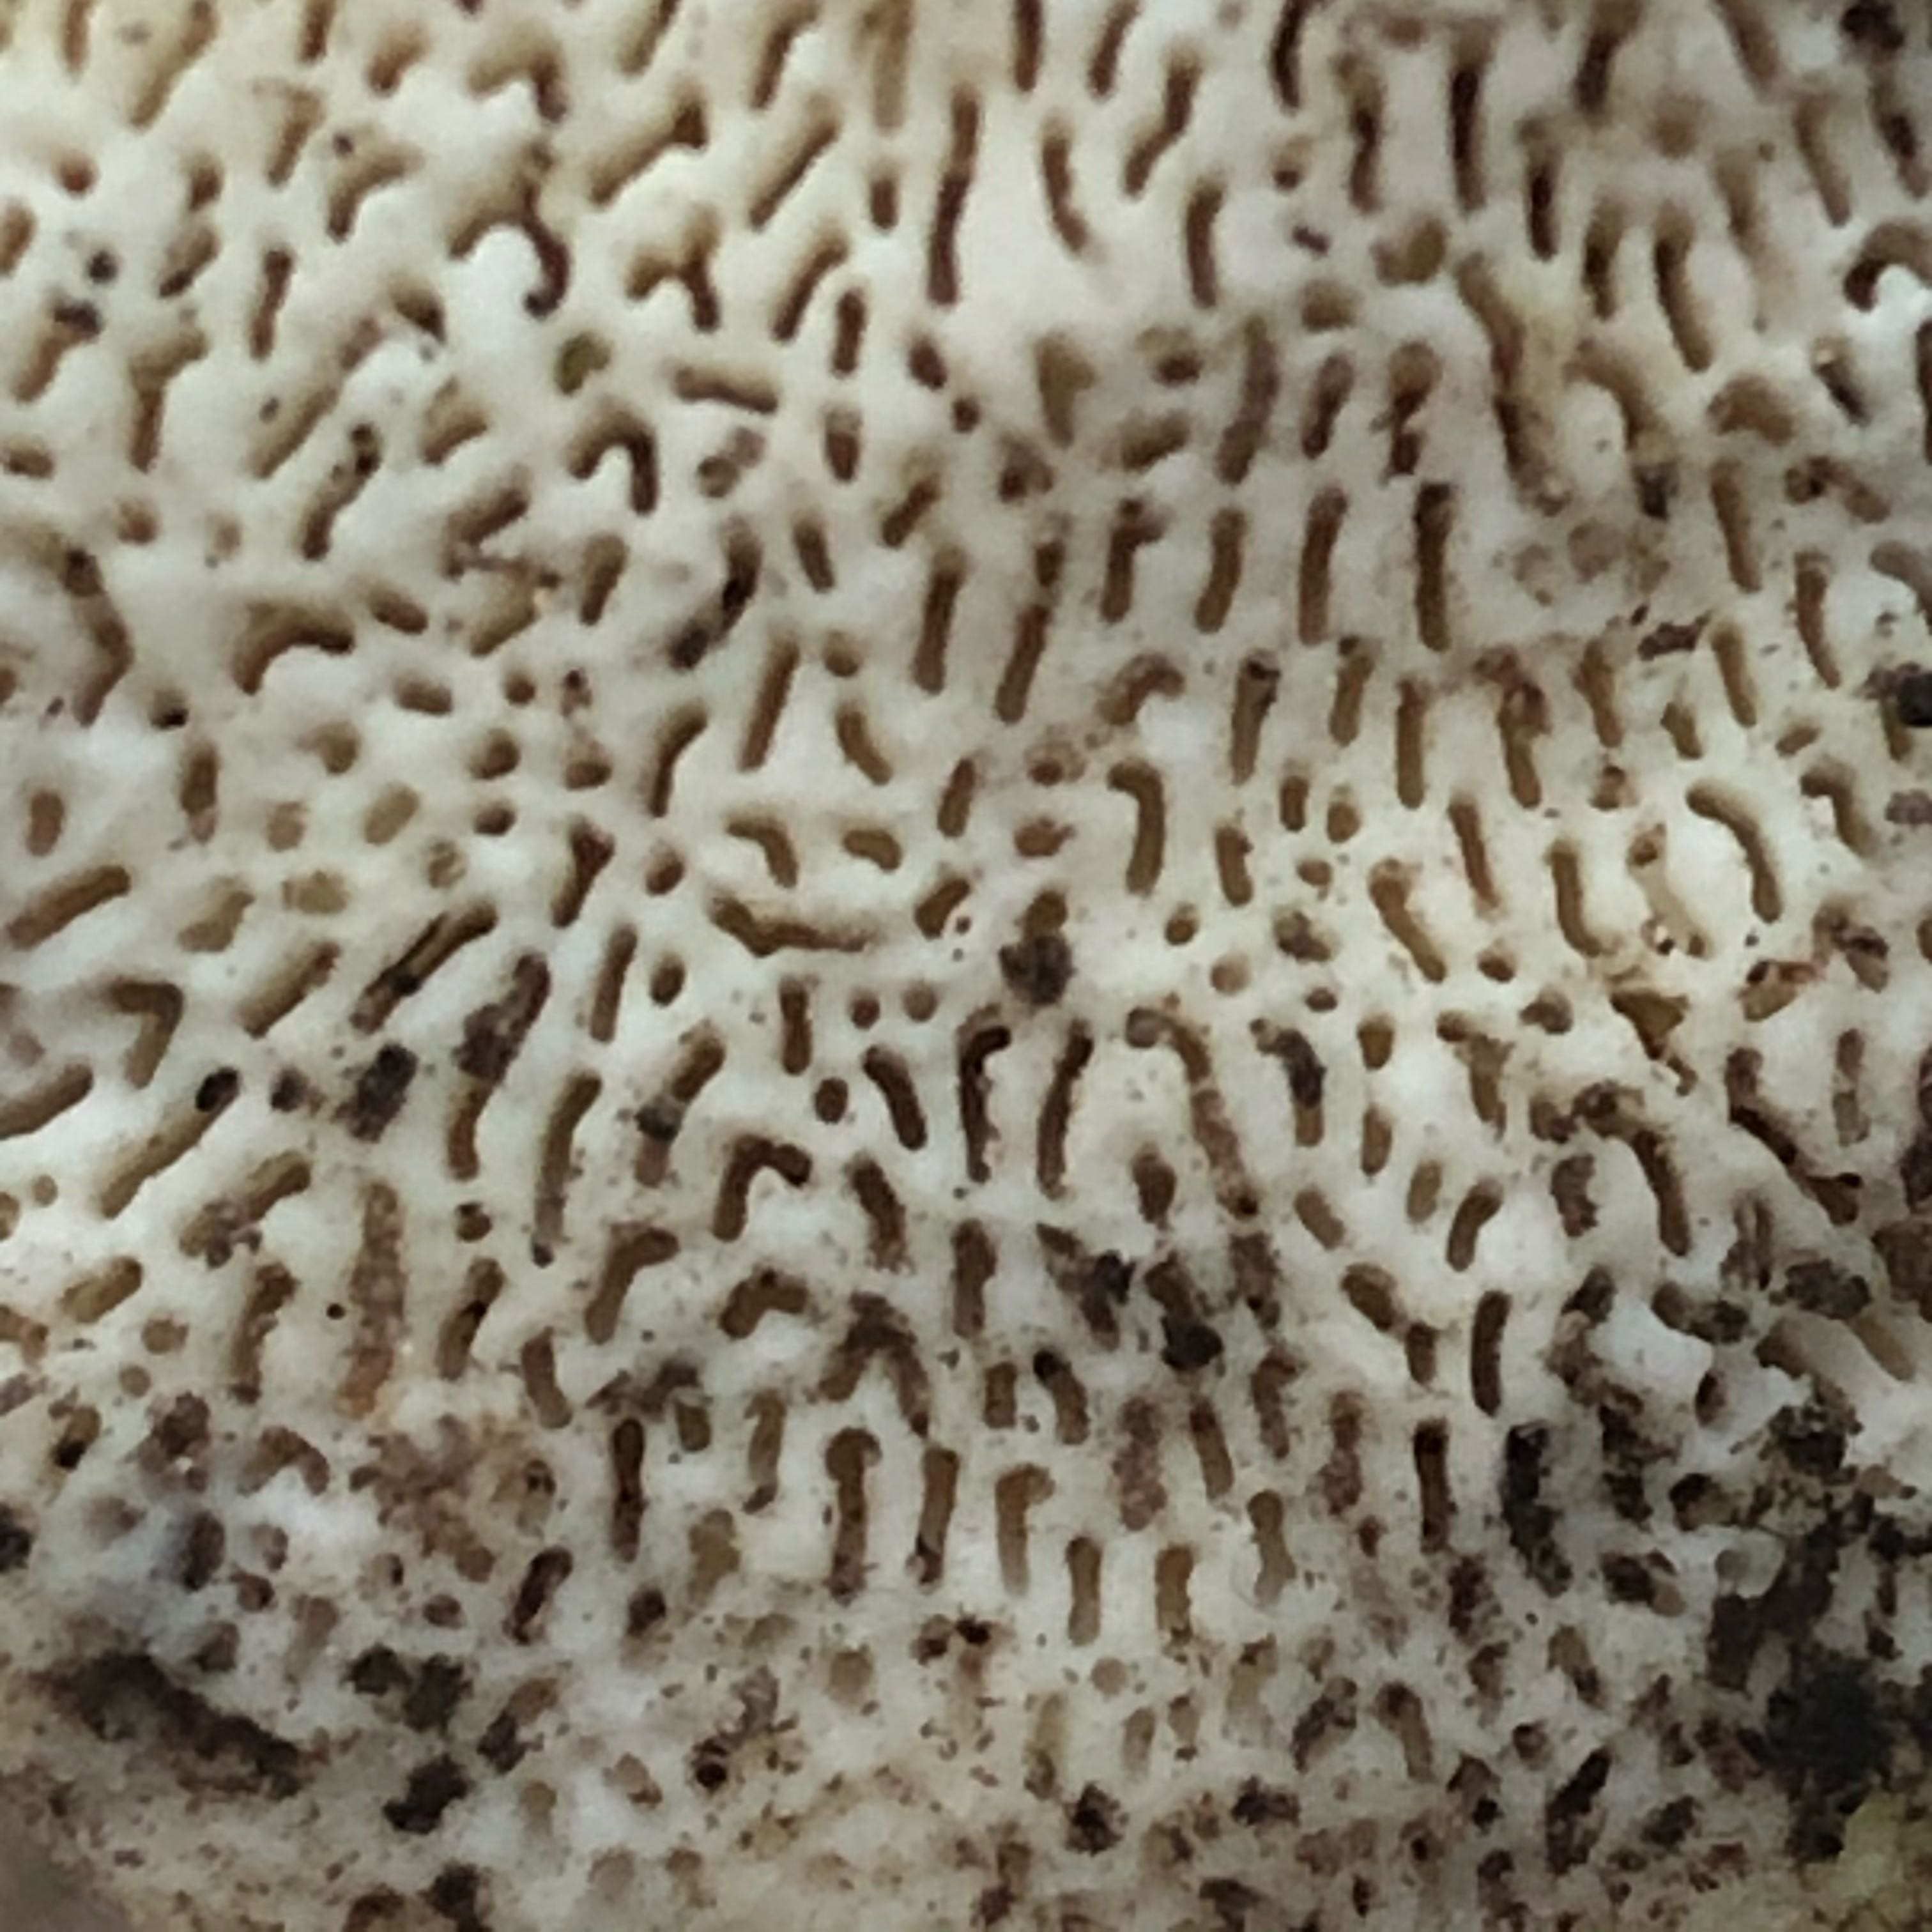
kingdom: Fungi
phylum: Basidiomycota
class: Agaricomycetes
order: Polyporales
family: Polyporaceae
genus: Trametes
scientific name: Trametes gibbosa
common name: puklet læderporesvamp
